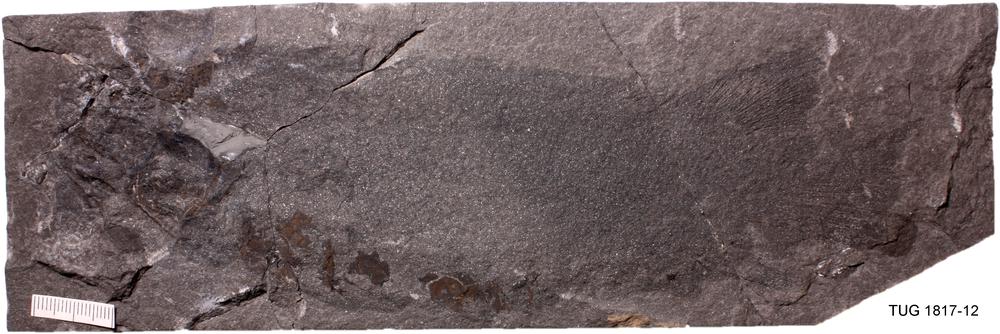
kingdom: Animalia
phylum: Chordata
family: Dipteridae
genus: Dipterus
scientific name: Dipterus valenciennesi
